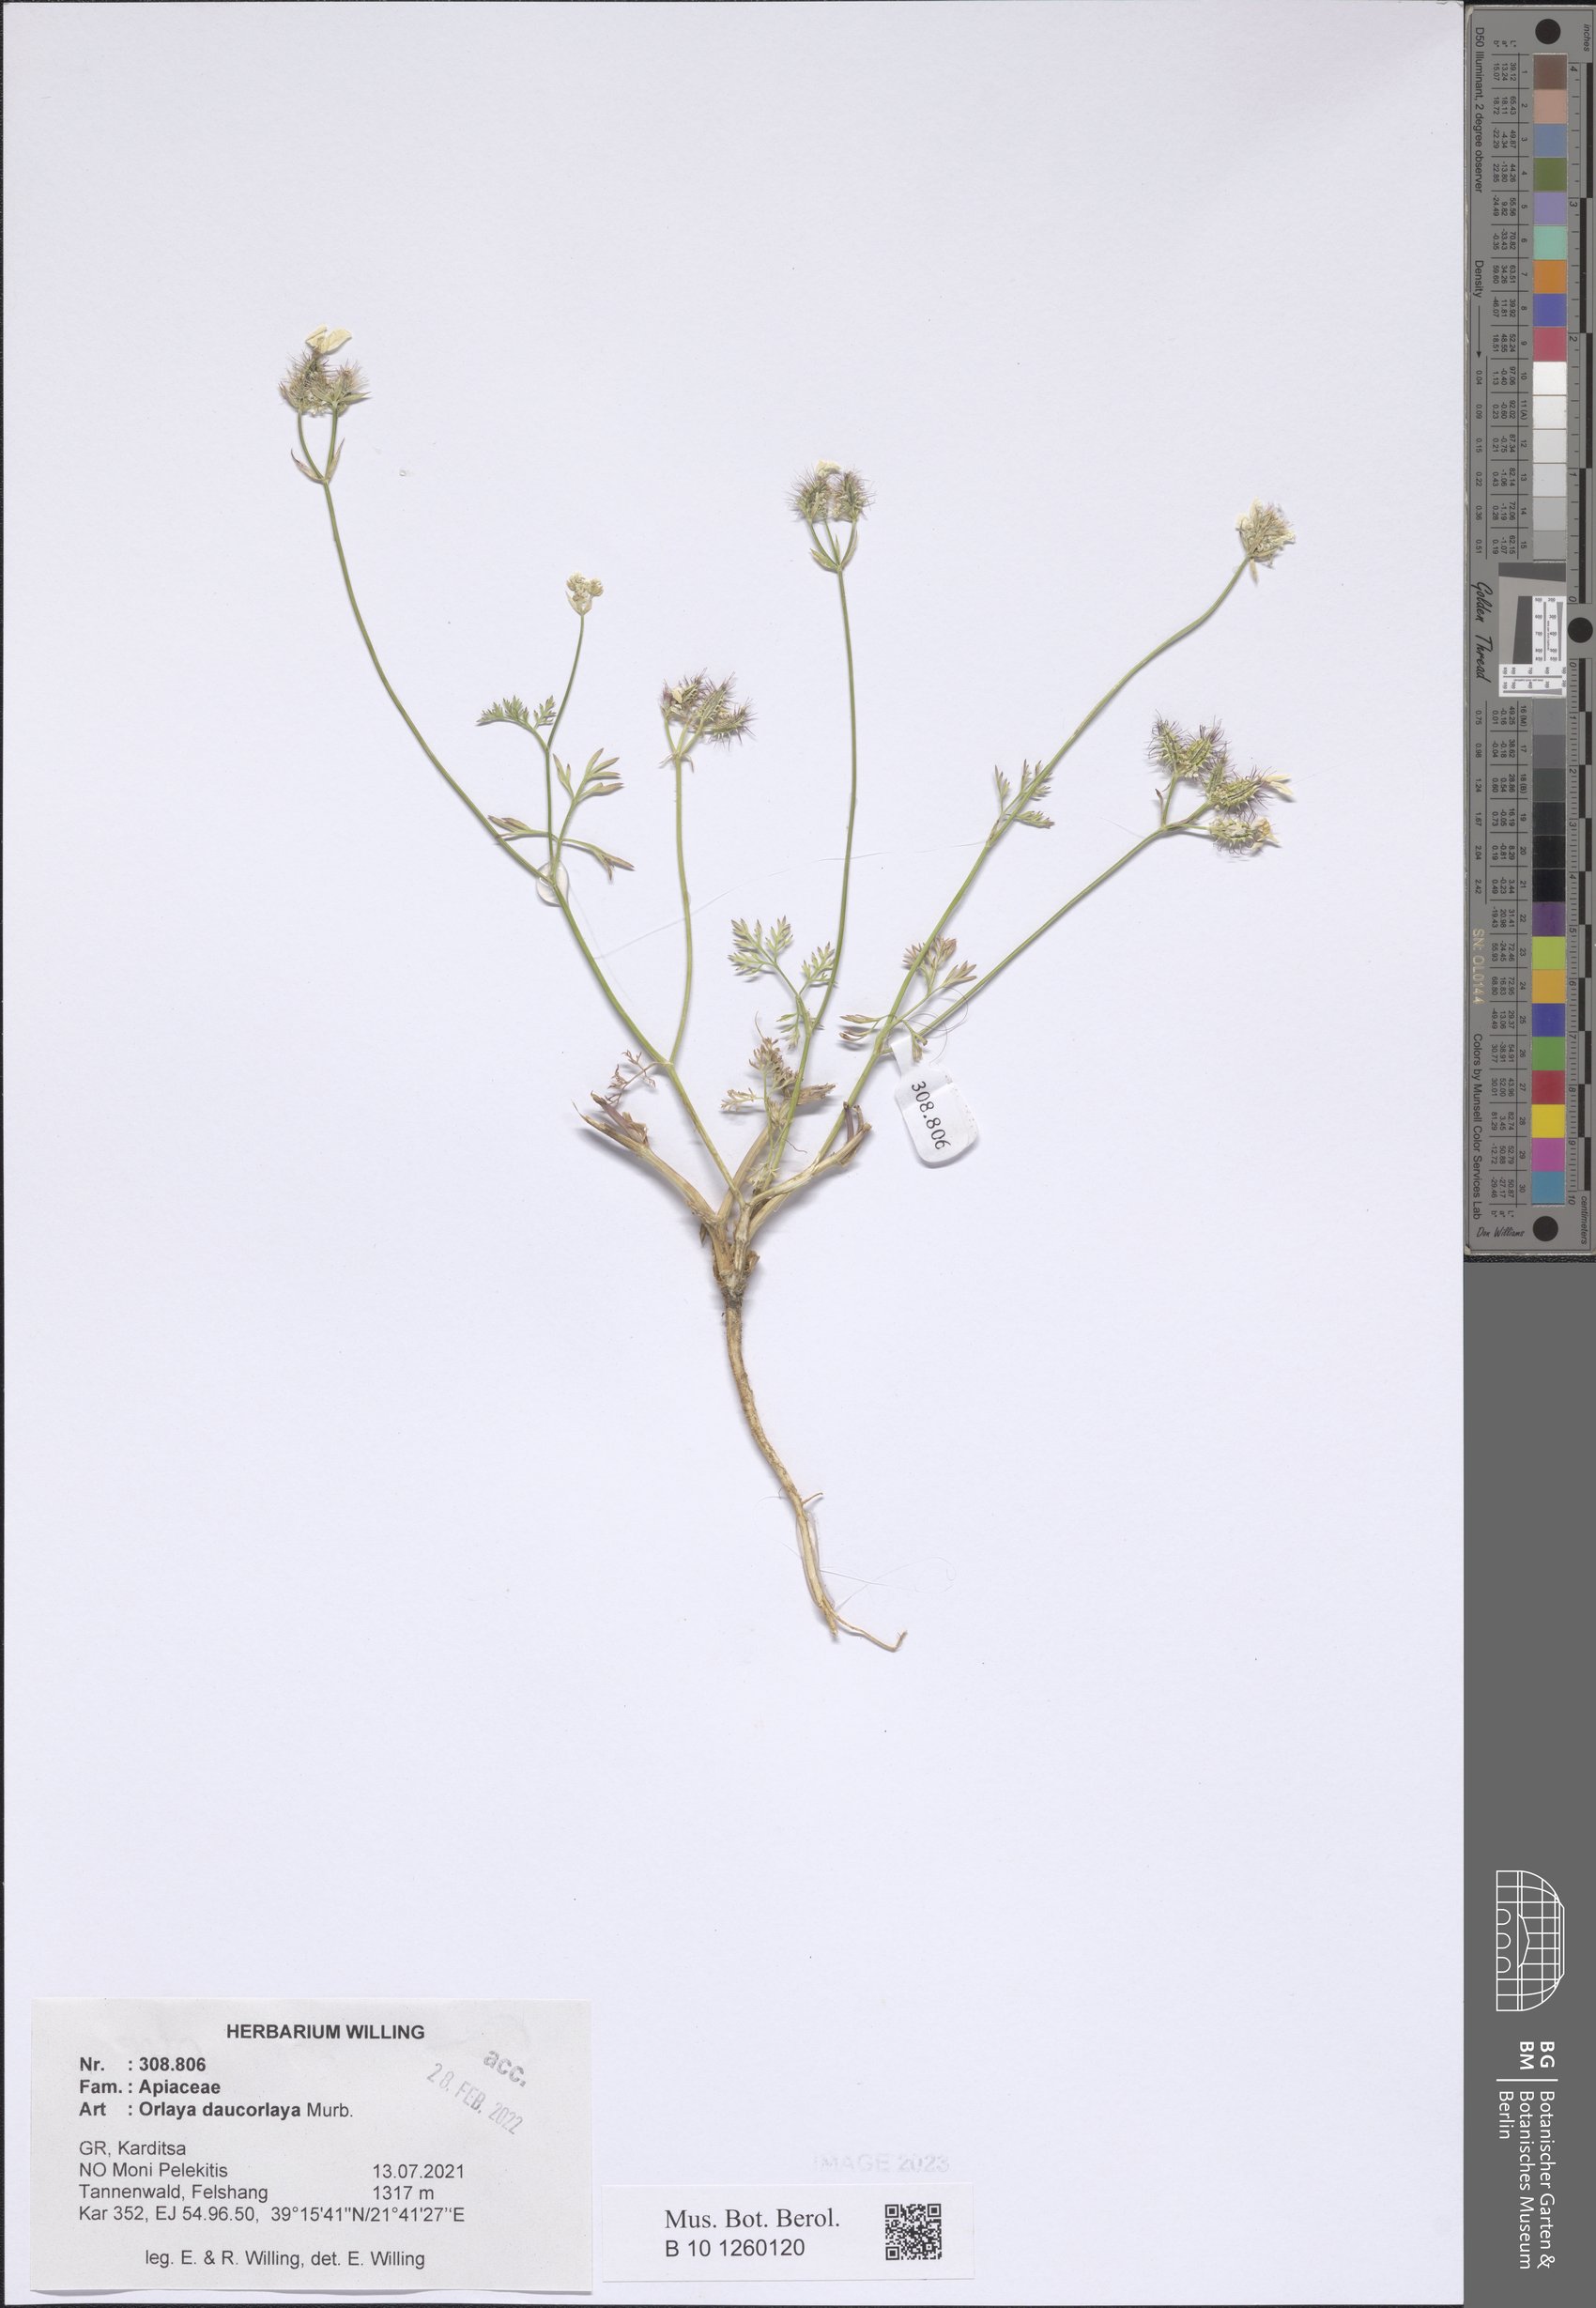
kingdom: Plantae
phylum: Tracheophyta
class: Magnoliopsida
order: Apiales
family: Apiaceae
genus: Orlaya
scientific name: Orlaya daucorlaya
